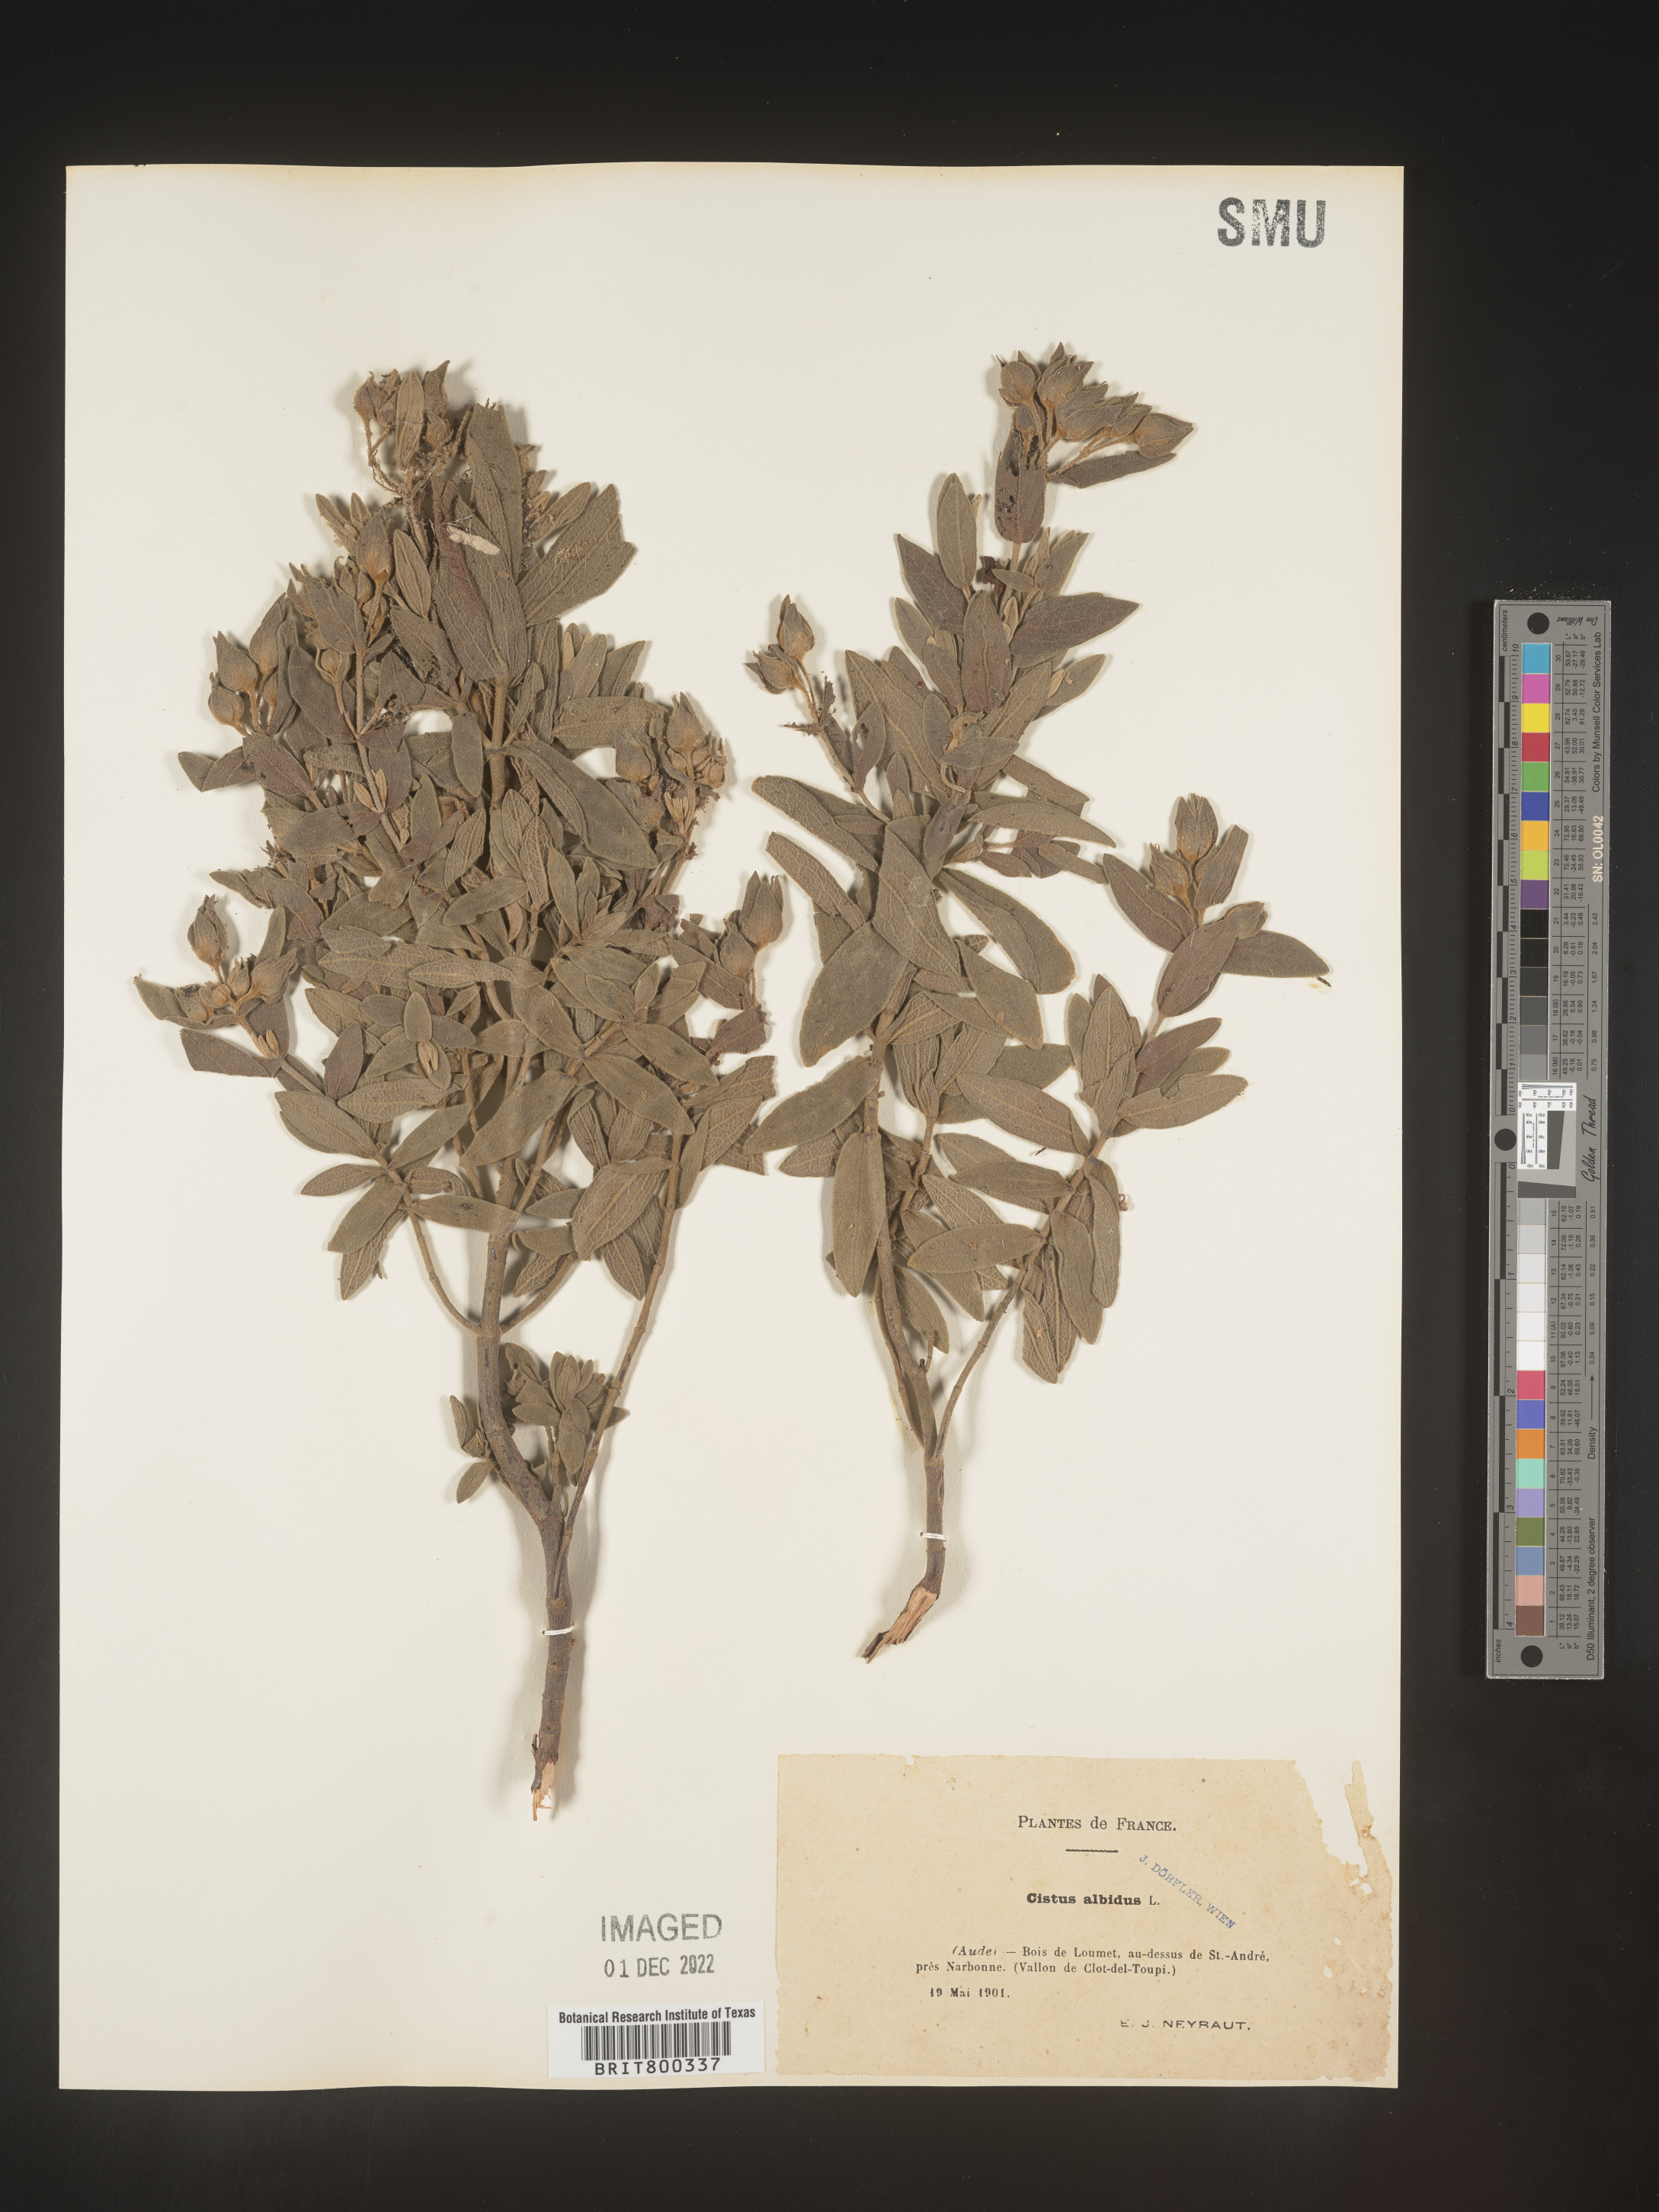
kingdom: Plantae
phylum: Tracheophyta
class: Magnoliopsida
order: Malvales
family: Cistaceae
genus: Cistus
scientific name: Cistus
